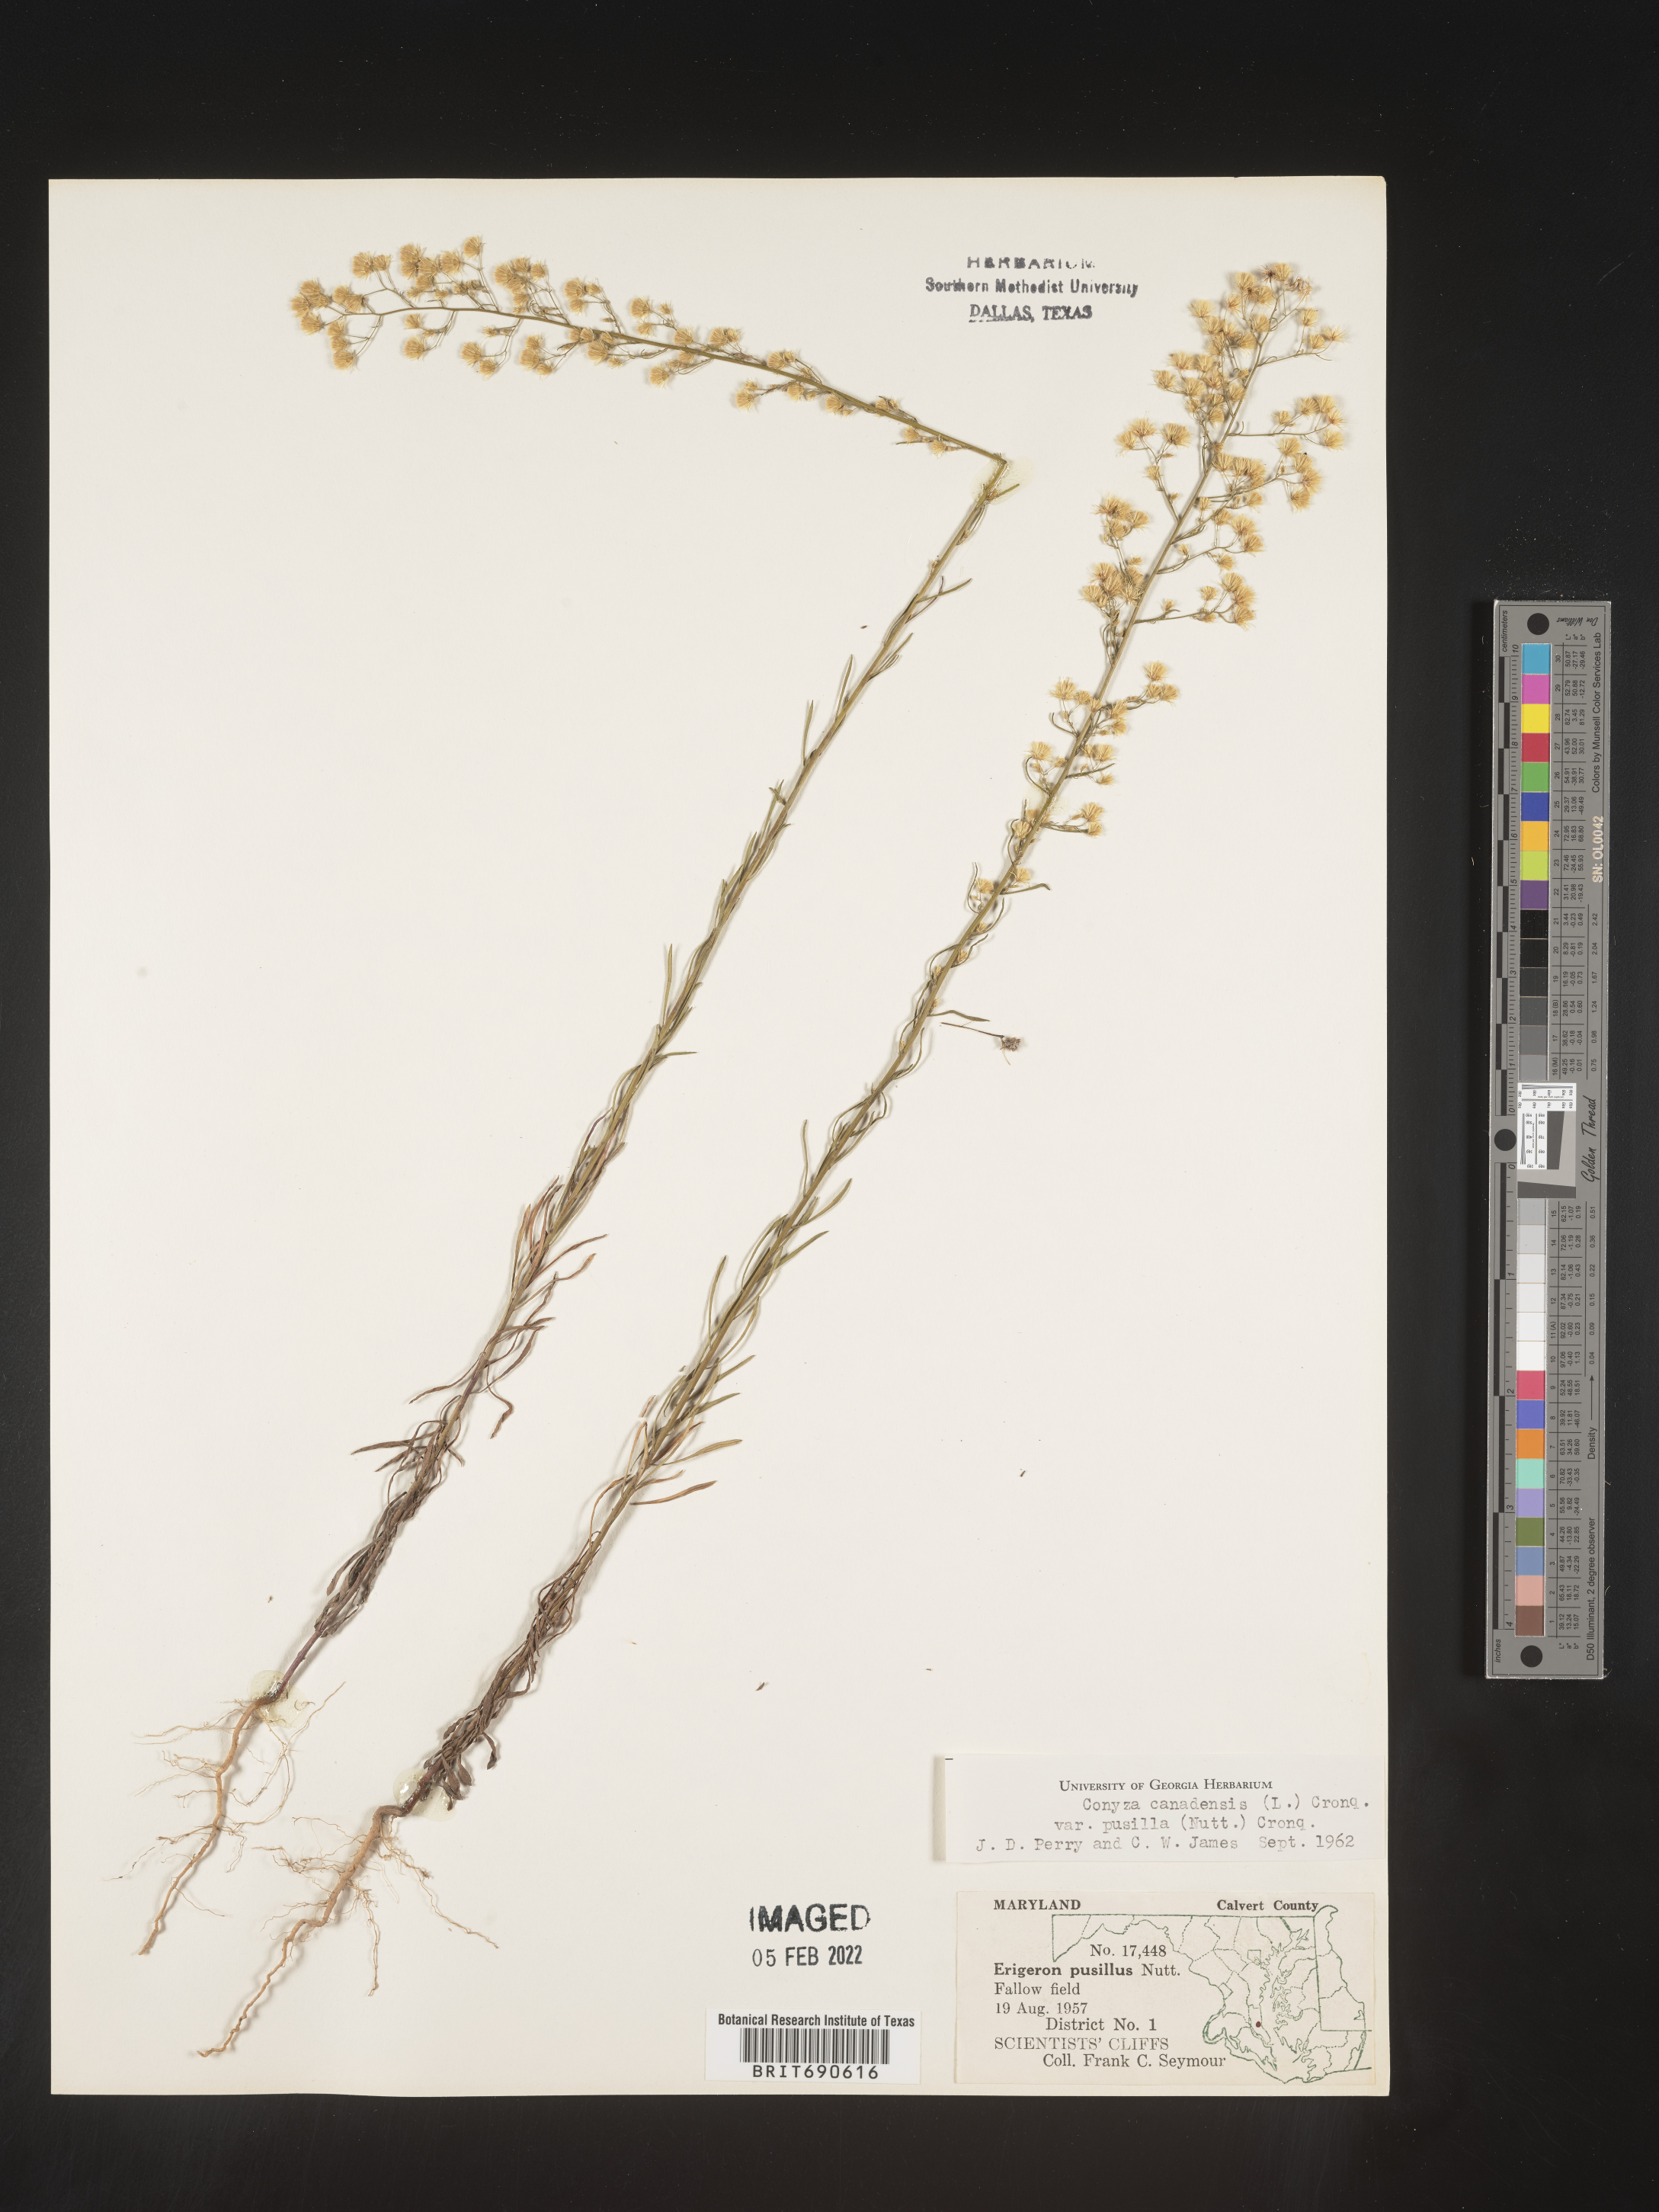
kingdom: Plantae
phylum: Tracheophyta
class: Magnoliopsida
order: Asterales
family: Asteraceae
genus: Erigeron
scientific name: Erigeron canadensis
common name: Canadian fleabane
